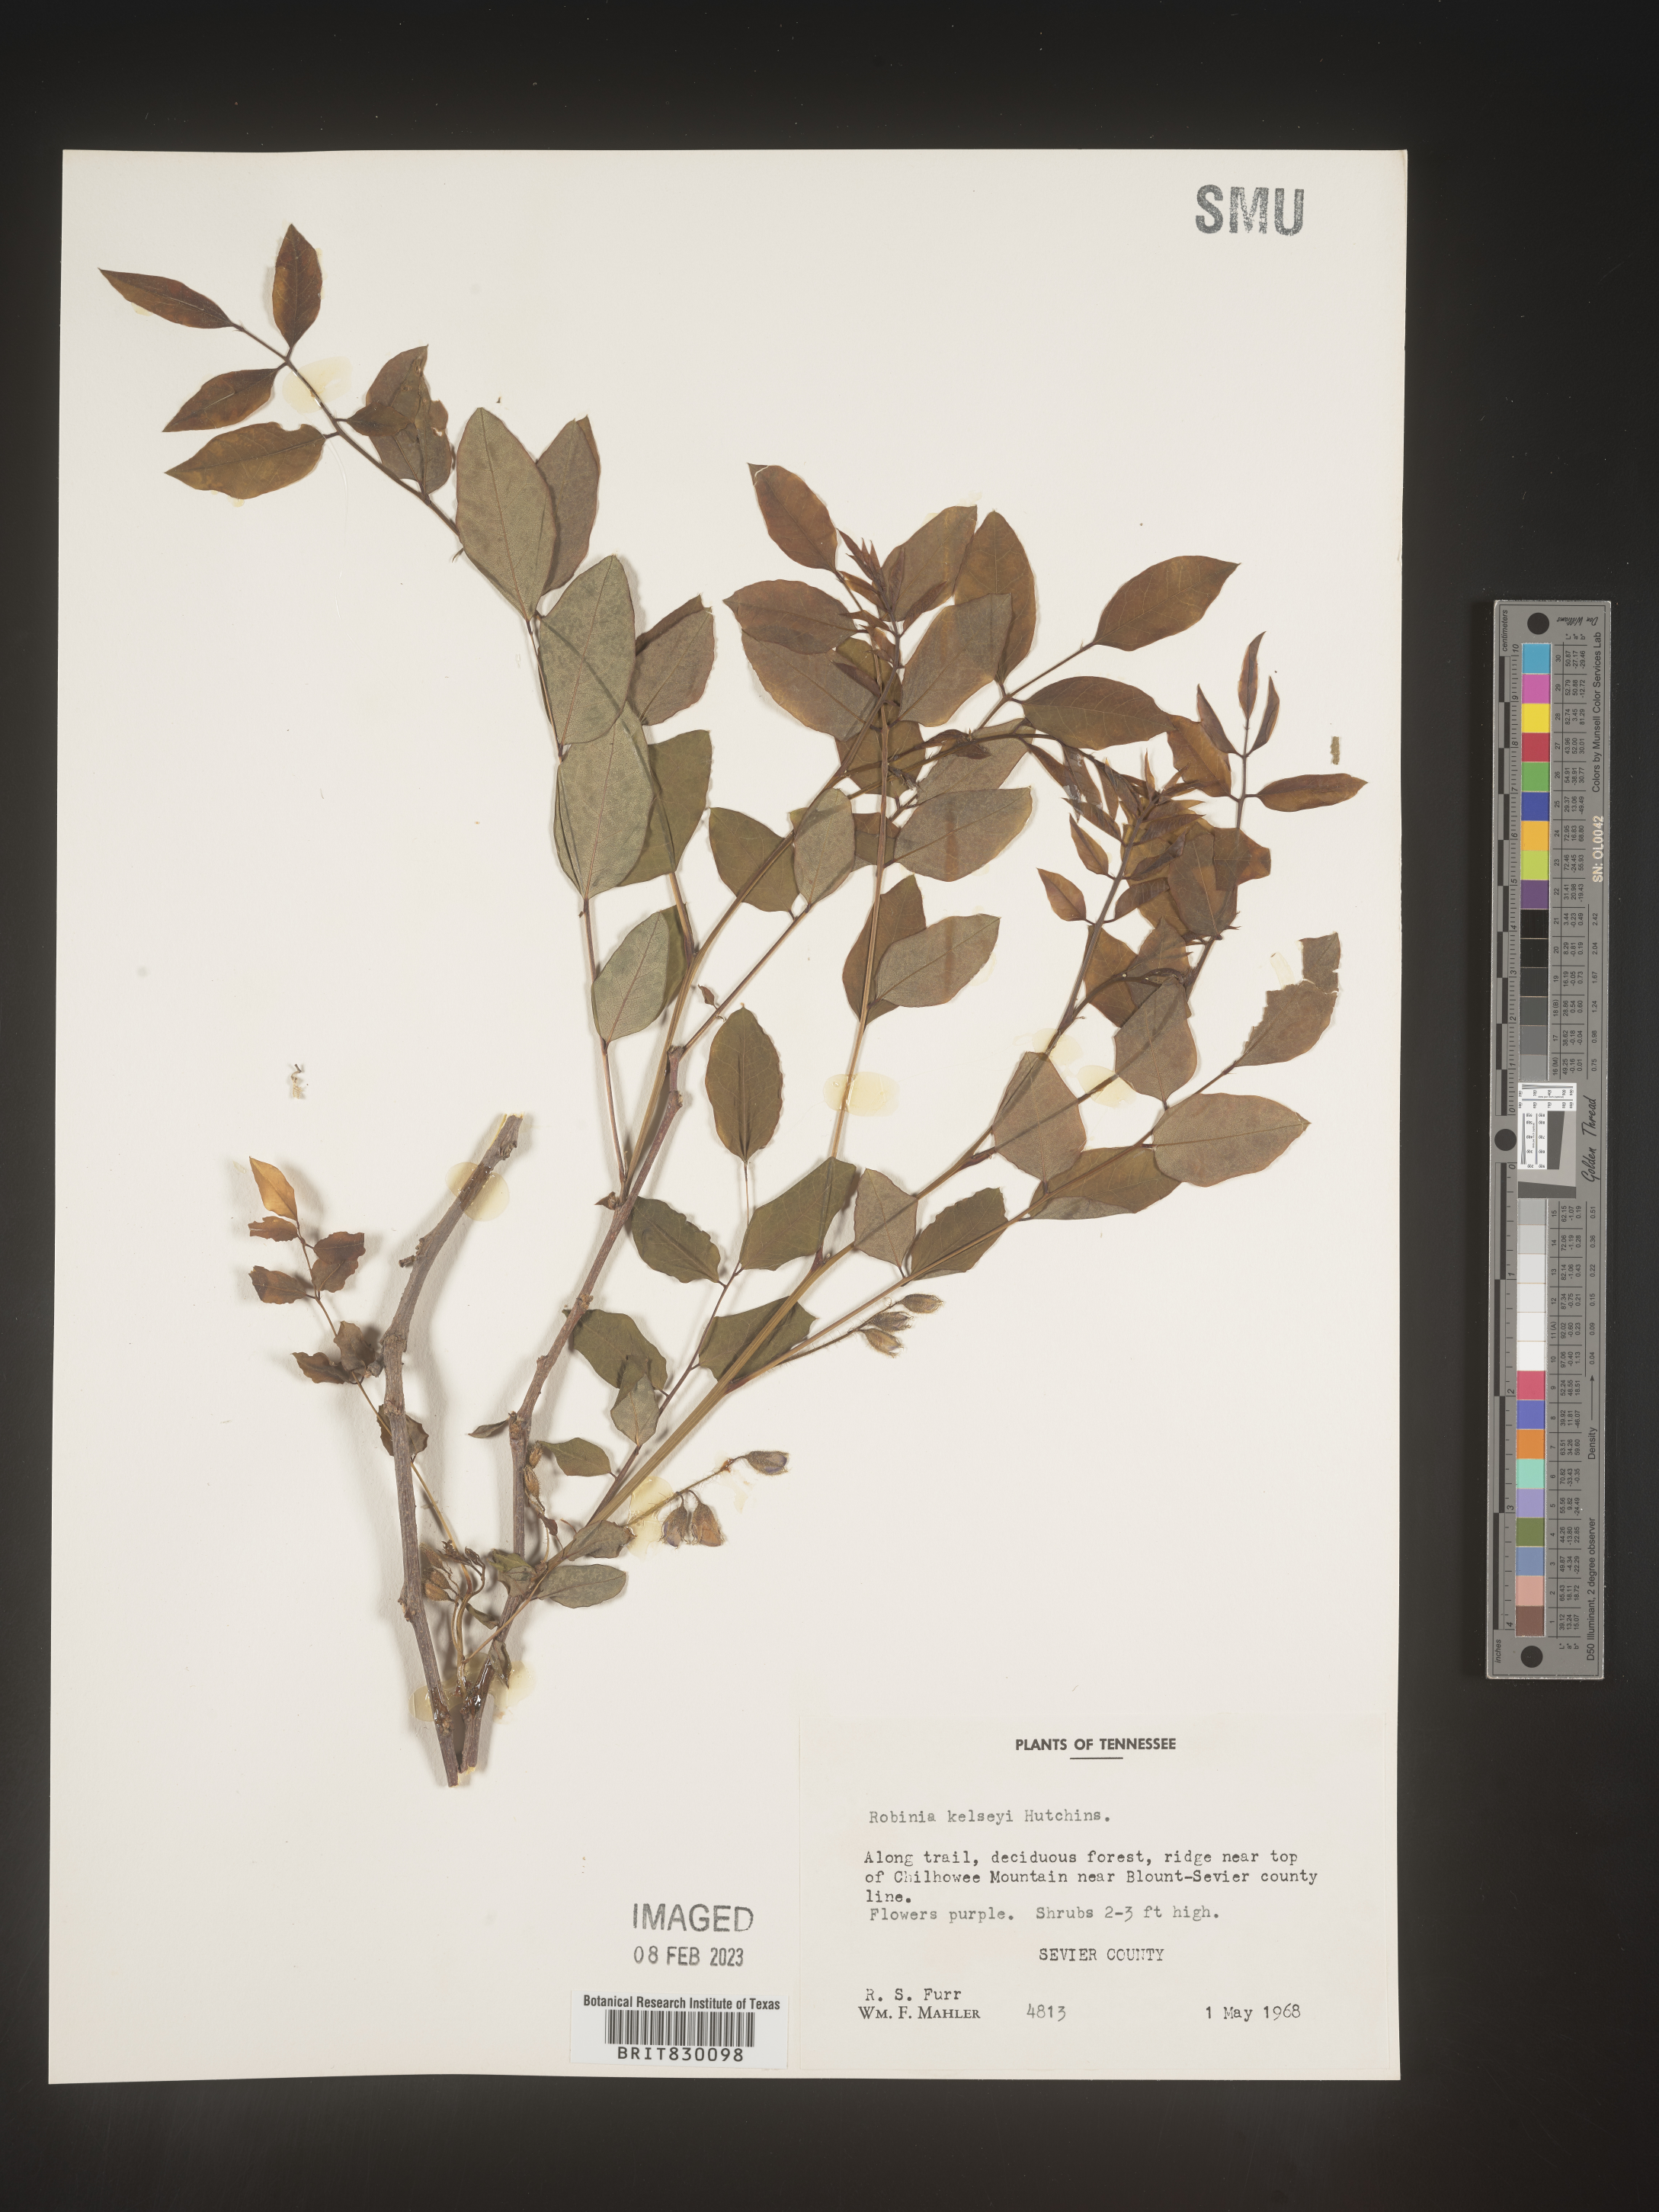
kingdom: Plantae
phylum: Tracheophyta
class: Magnoliopsida
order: Fabales
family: Fabaceae
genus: Robinia
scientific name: Robinia
